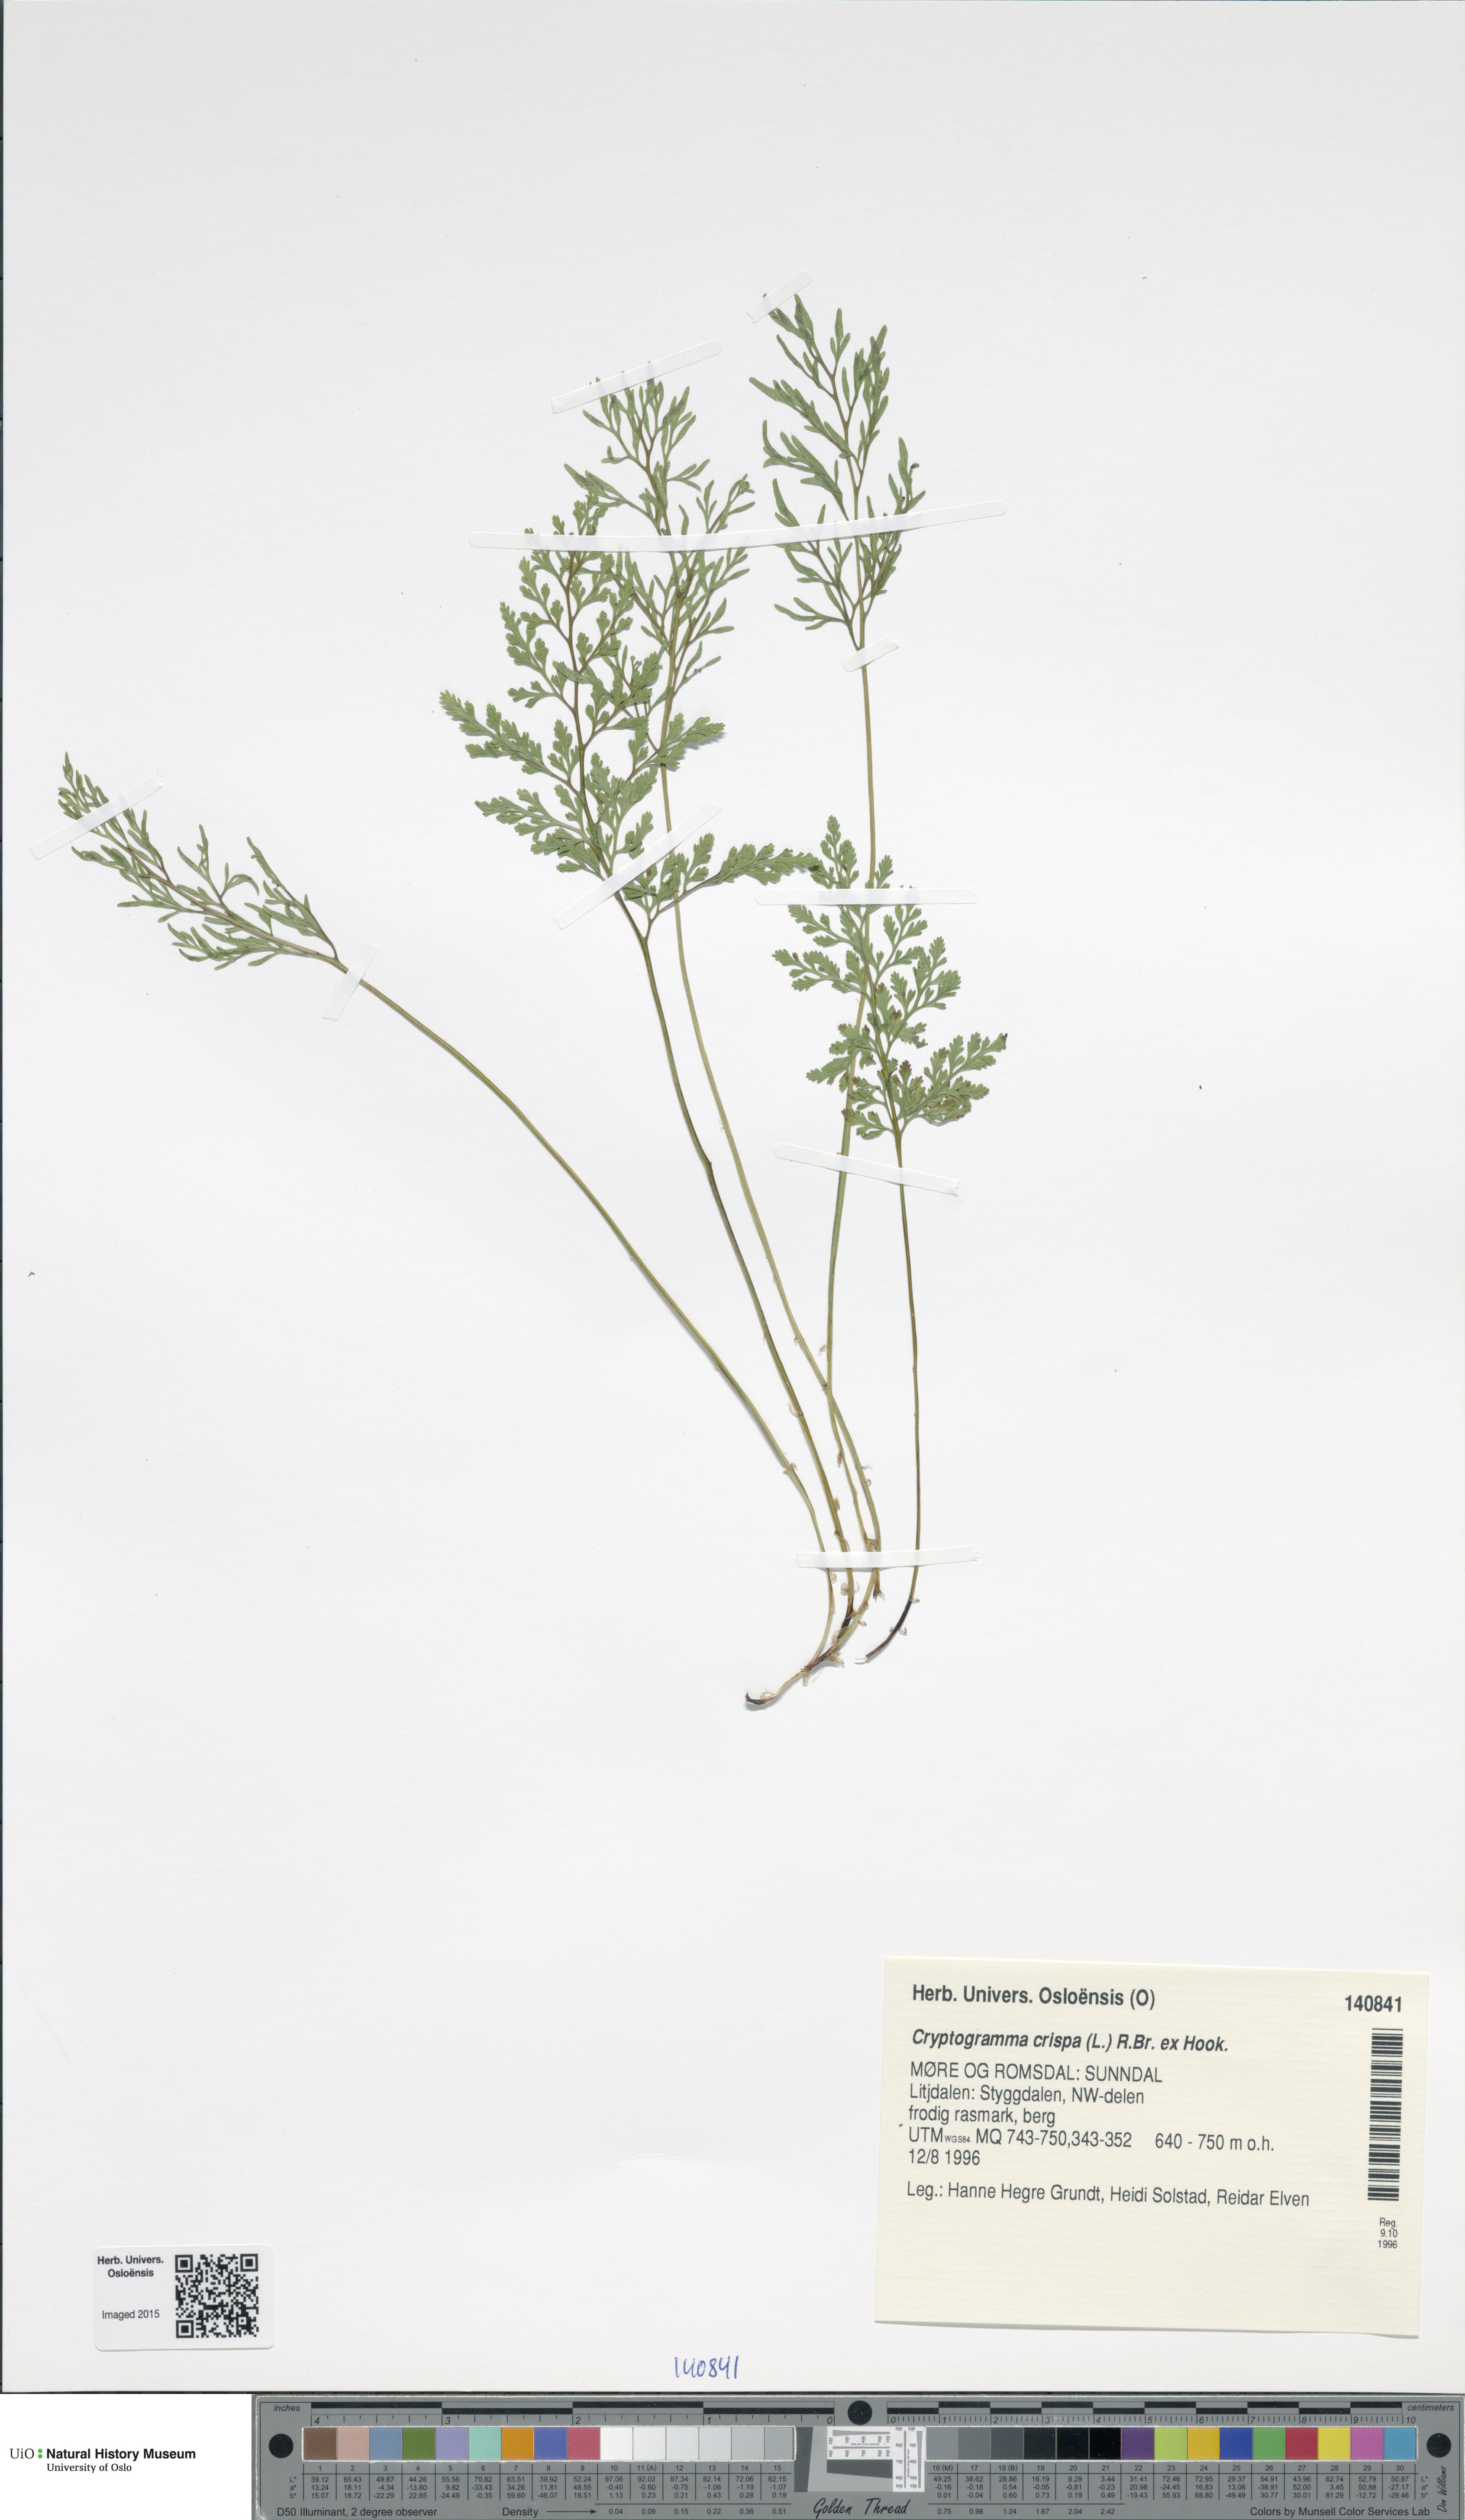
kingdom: Plantae
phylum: Tracheophyta
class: Polypodiopsida
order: Polypodiales
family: Pteridaceae
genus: Cryptogramma
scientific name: Cryptogramma crispa
